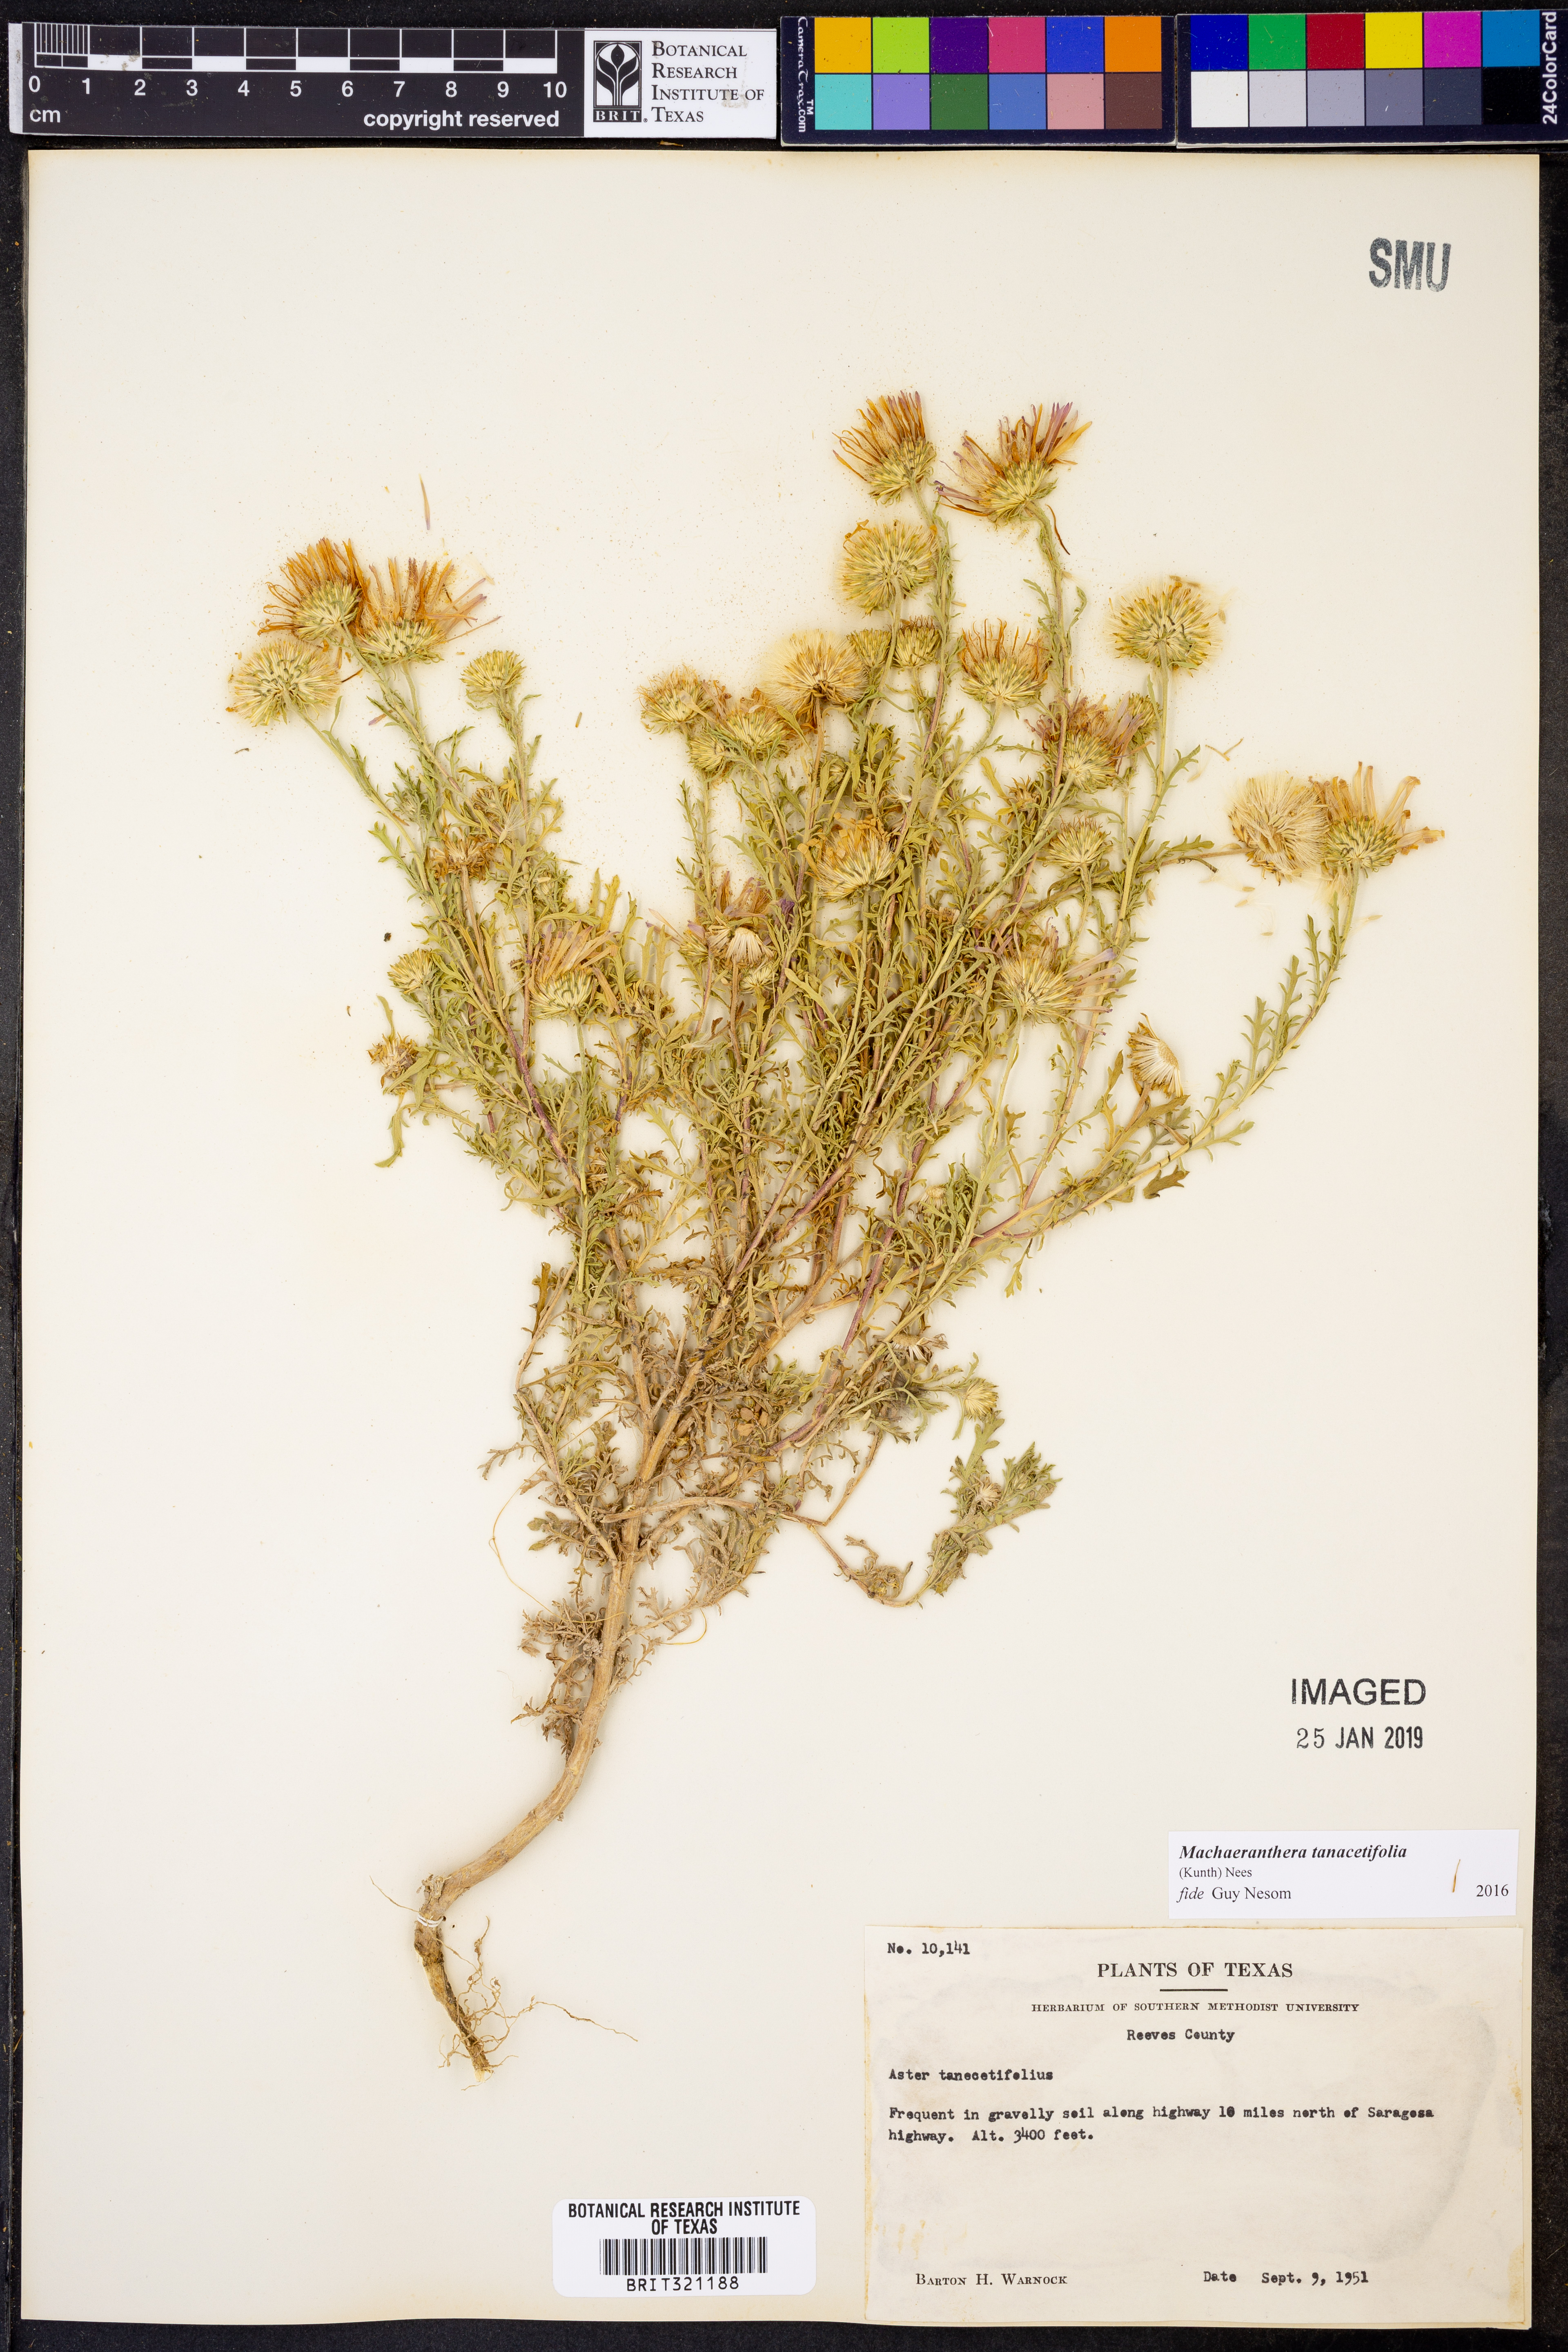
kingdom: Plantae
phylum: Tracheophyta
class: Magnoliopsida
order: Asterales
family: Asteraceae
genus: Machaeranthera
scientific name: Machaeranthera tanacetifolia
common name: Tansy-aster
